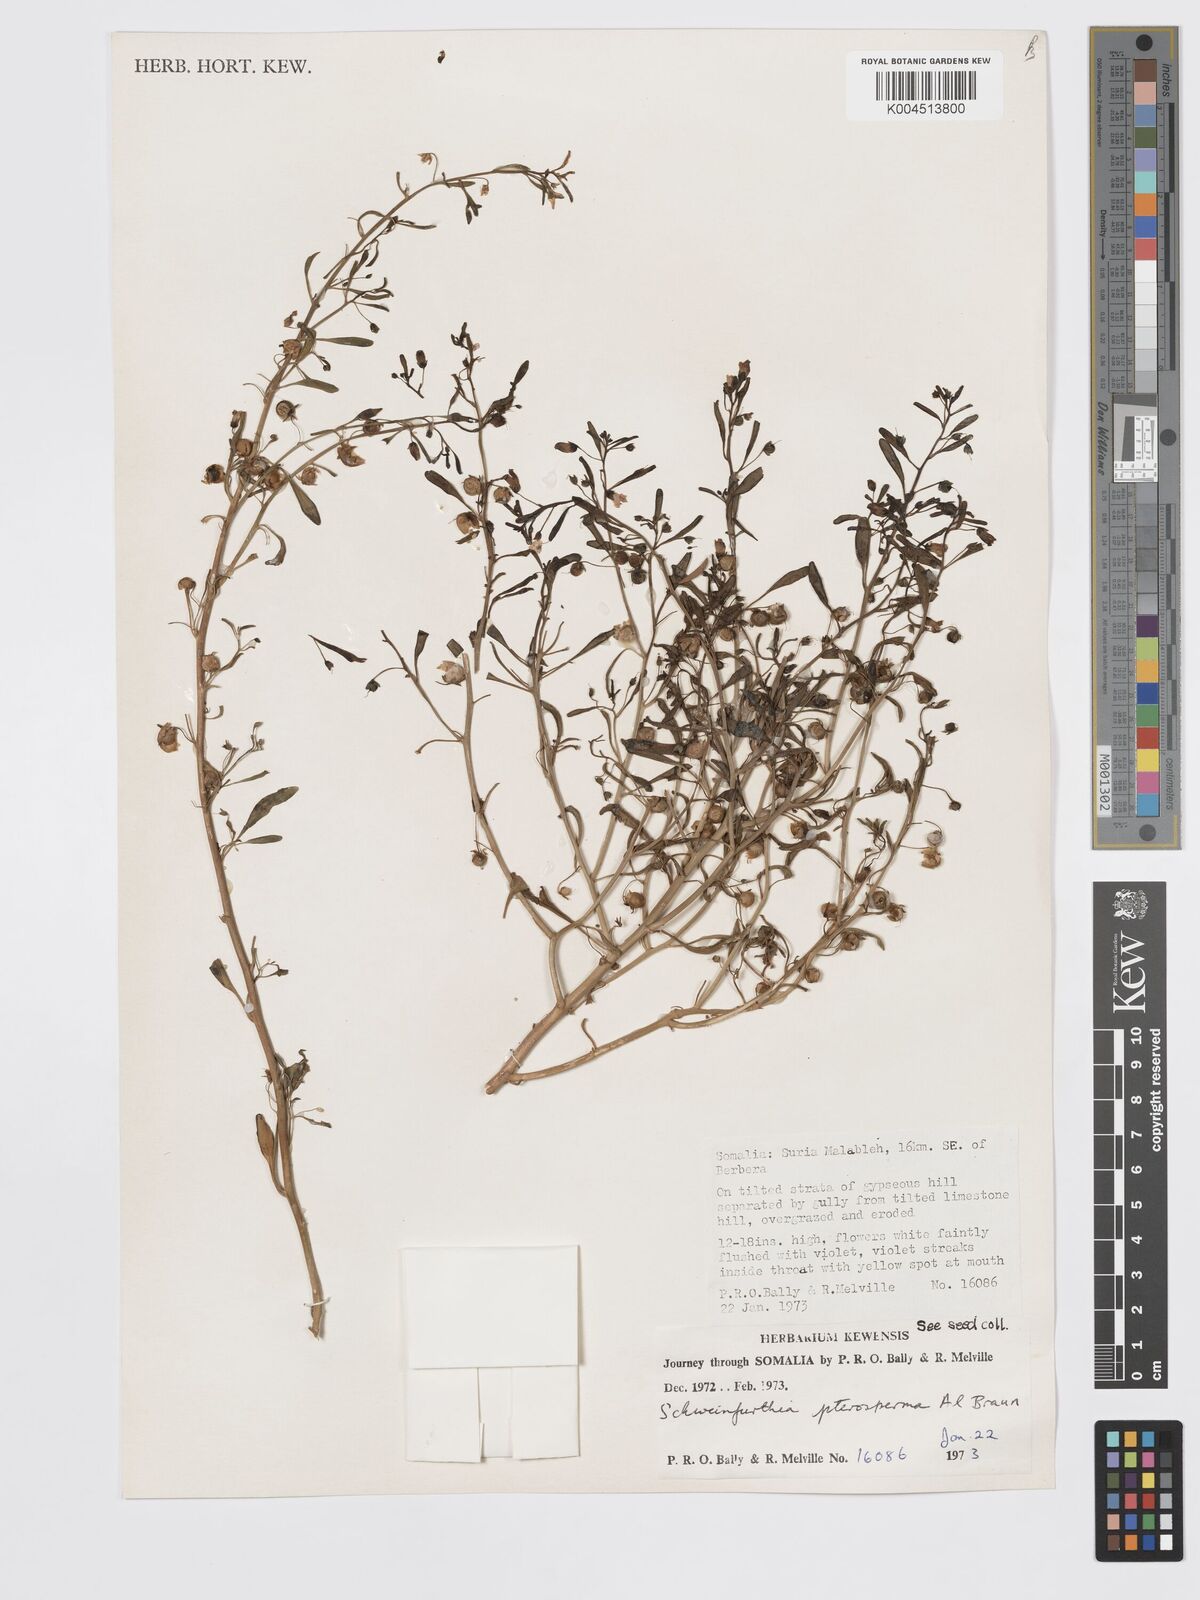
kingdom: Plantae
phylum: Tracheophyta
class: Magnoliopsida
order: Lamiales
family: Plantaginaceae
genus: Schweinfurthia
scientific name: Schweinfurthia pterosperma
